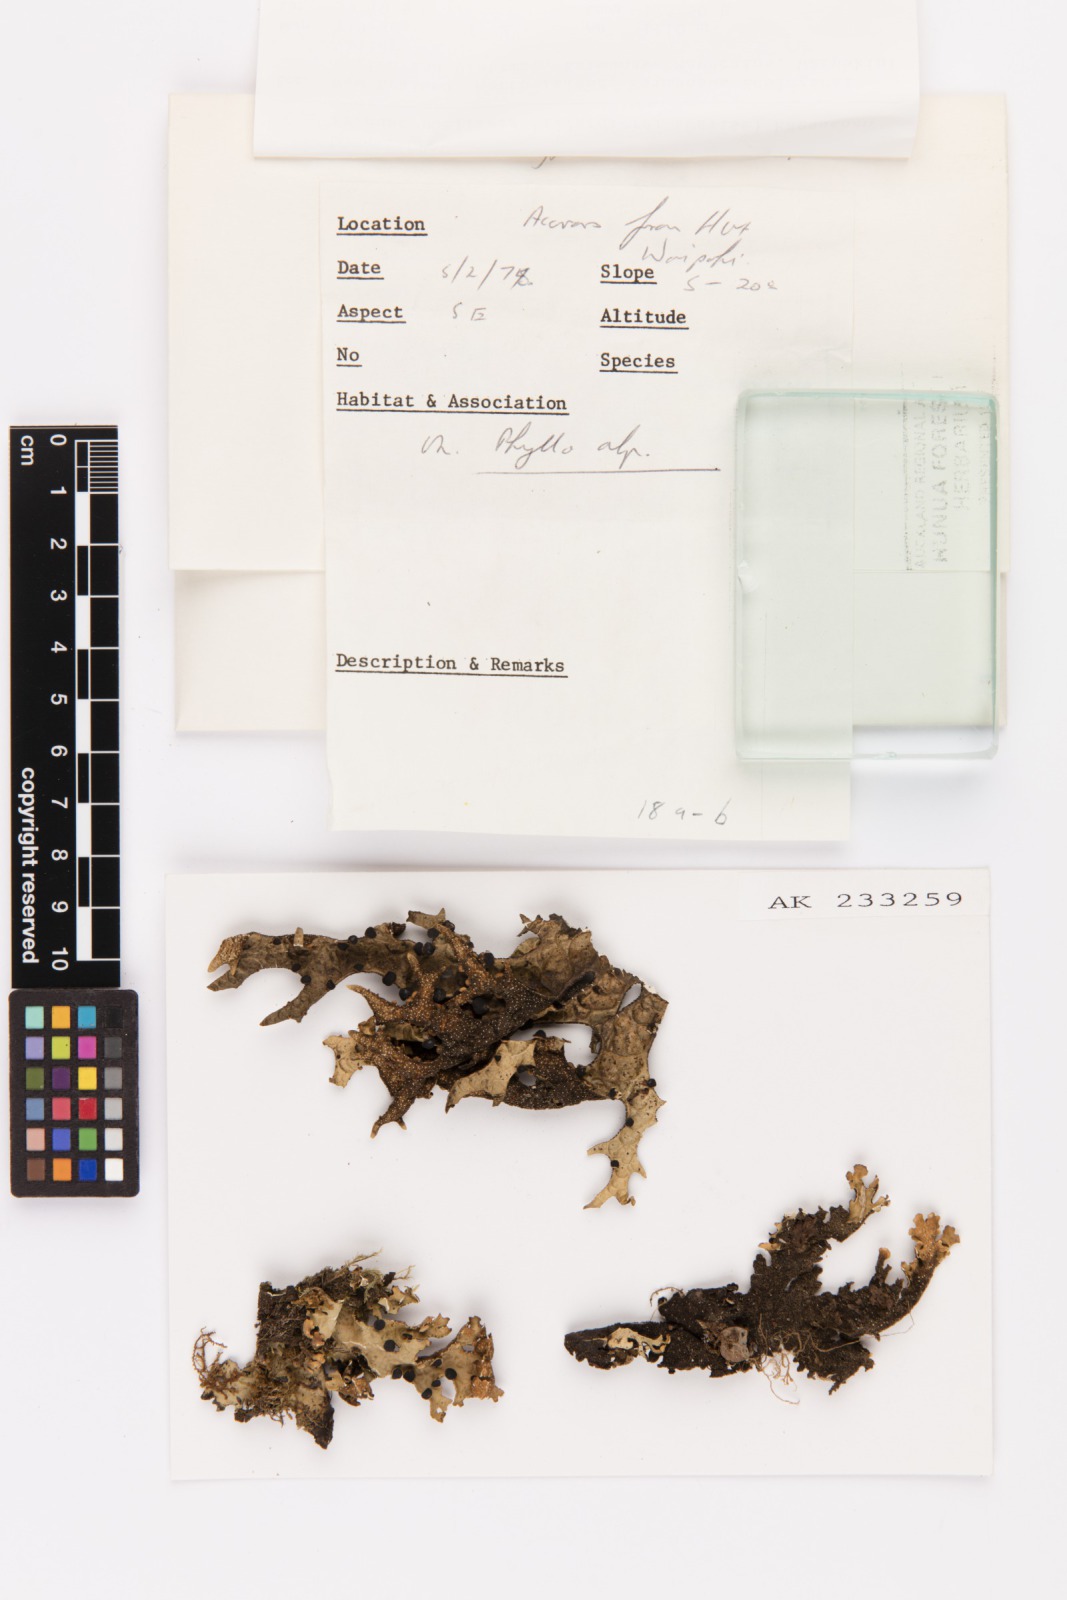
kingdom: Fungi
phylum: Ascomycota
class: Lecanoromycetes
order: Peltigerales
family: Lobariaceae
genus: Pseudocyphellaria
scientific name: Pseudocyphellaria billardierei
